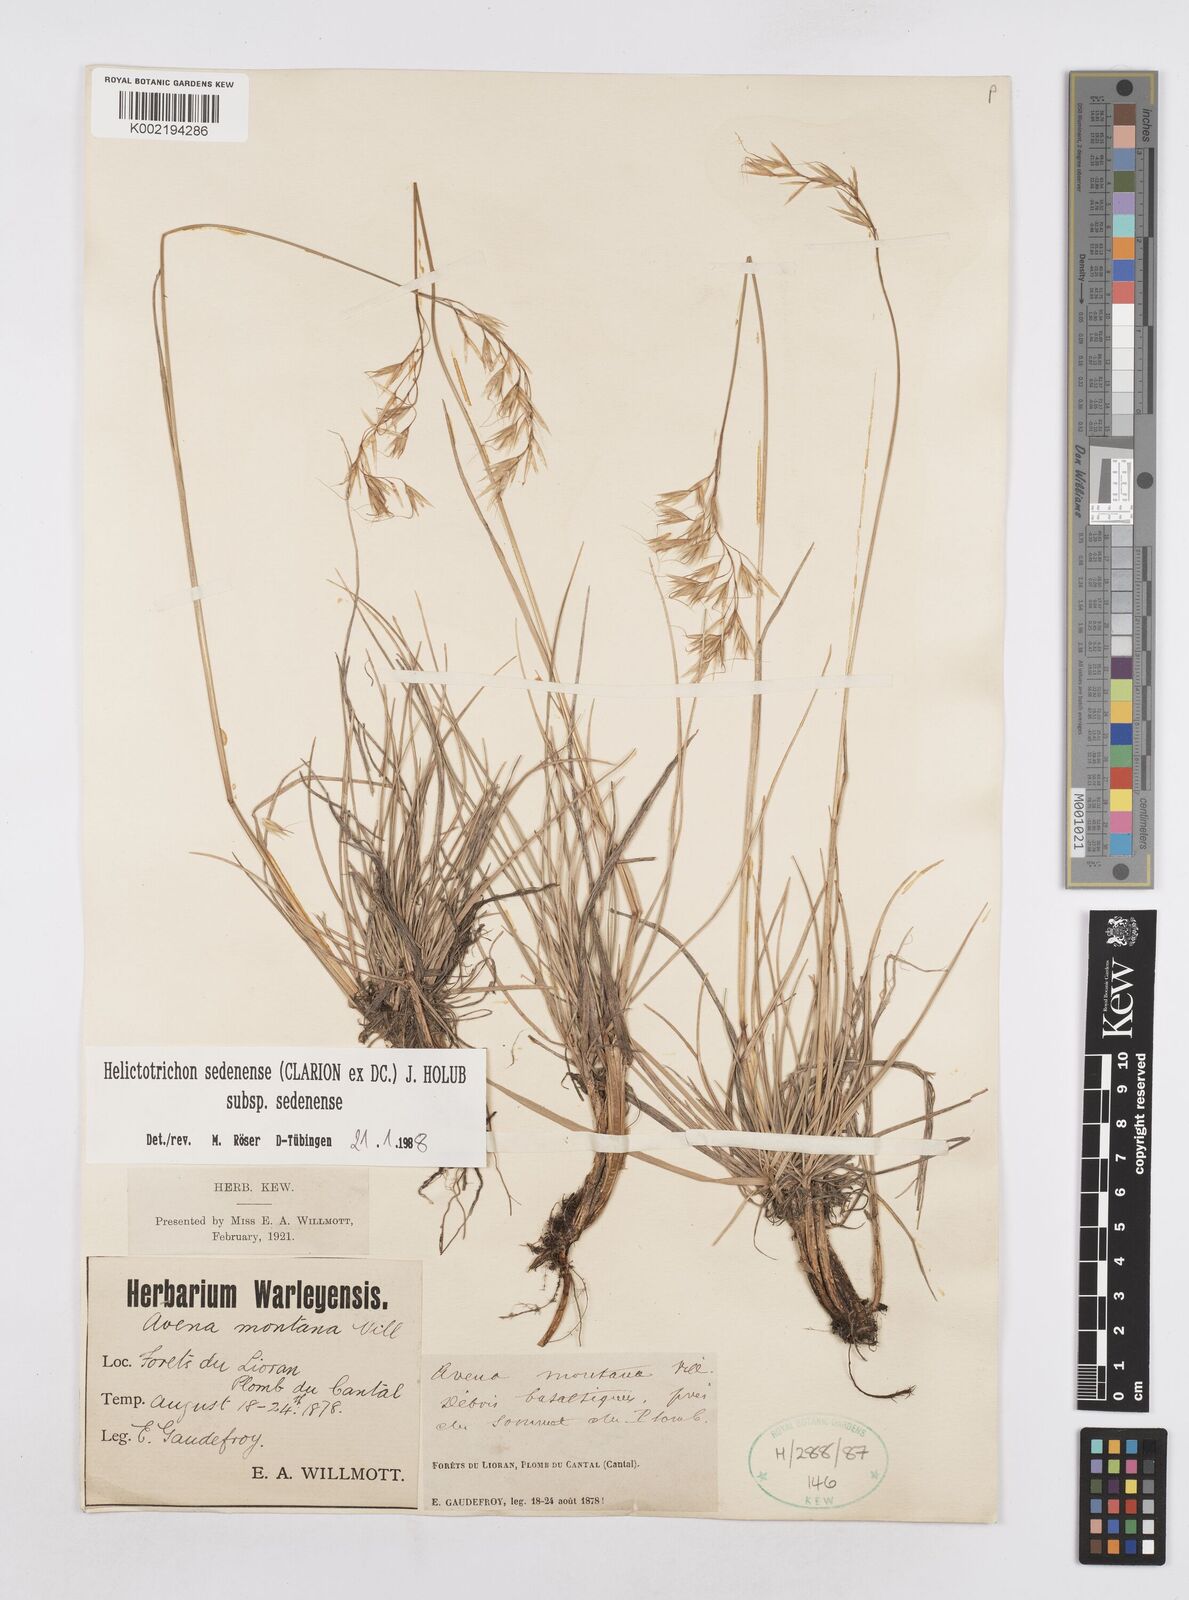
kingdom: Plantae
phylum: Tracheophyta
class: Liliopsida
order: Poales
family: Poaceae
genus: Helictotrichon
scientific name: Helictotrichon sedenense
